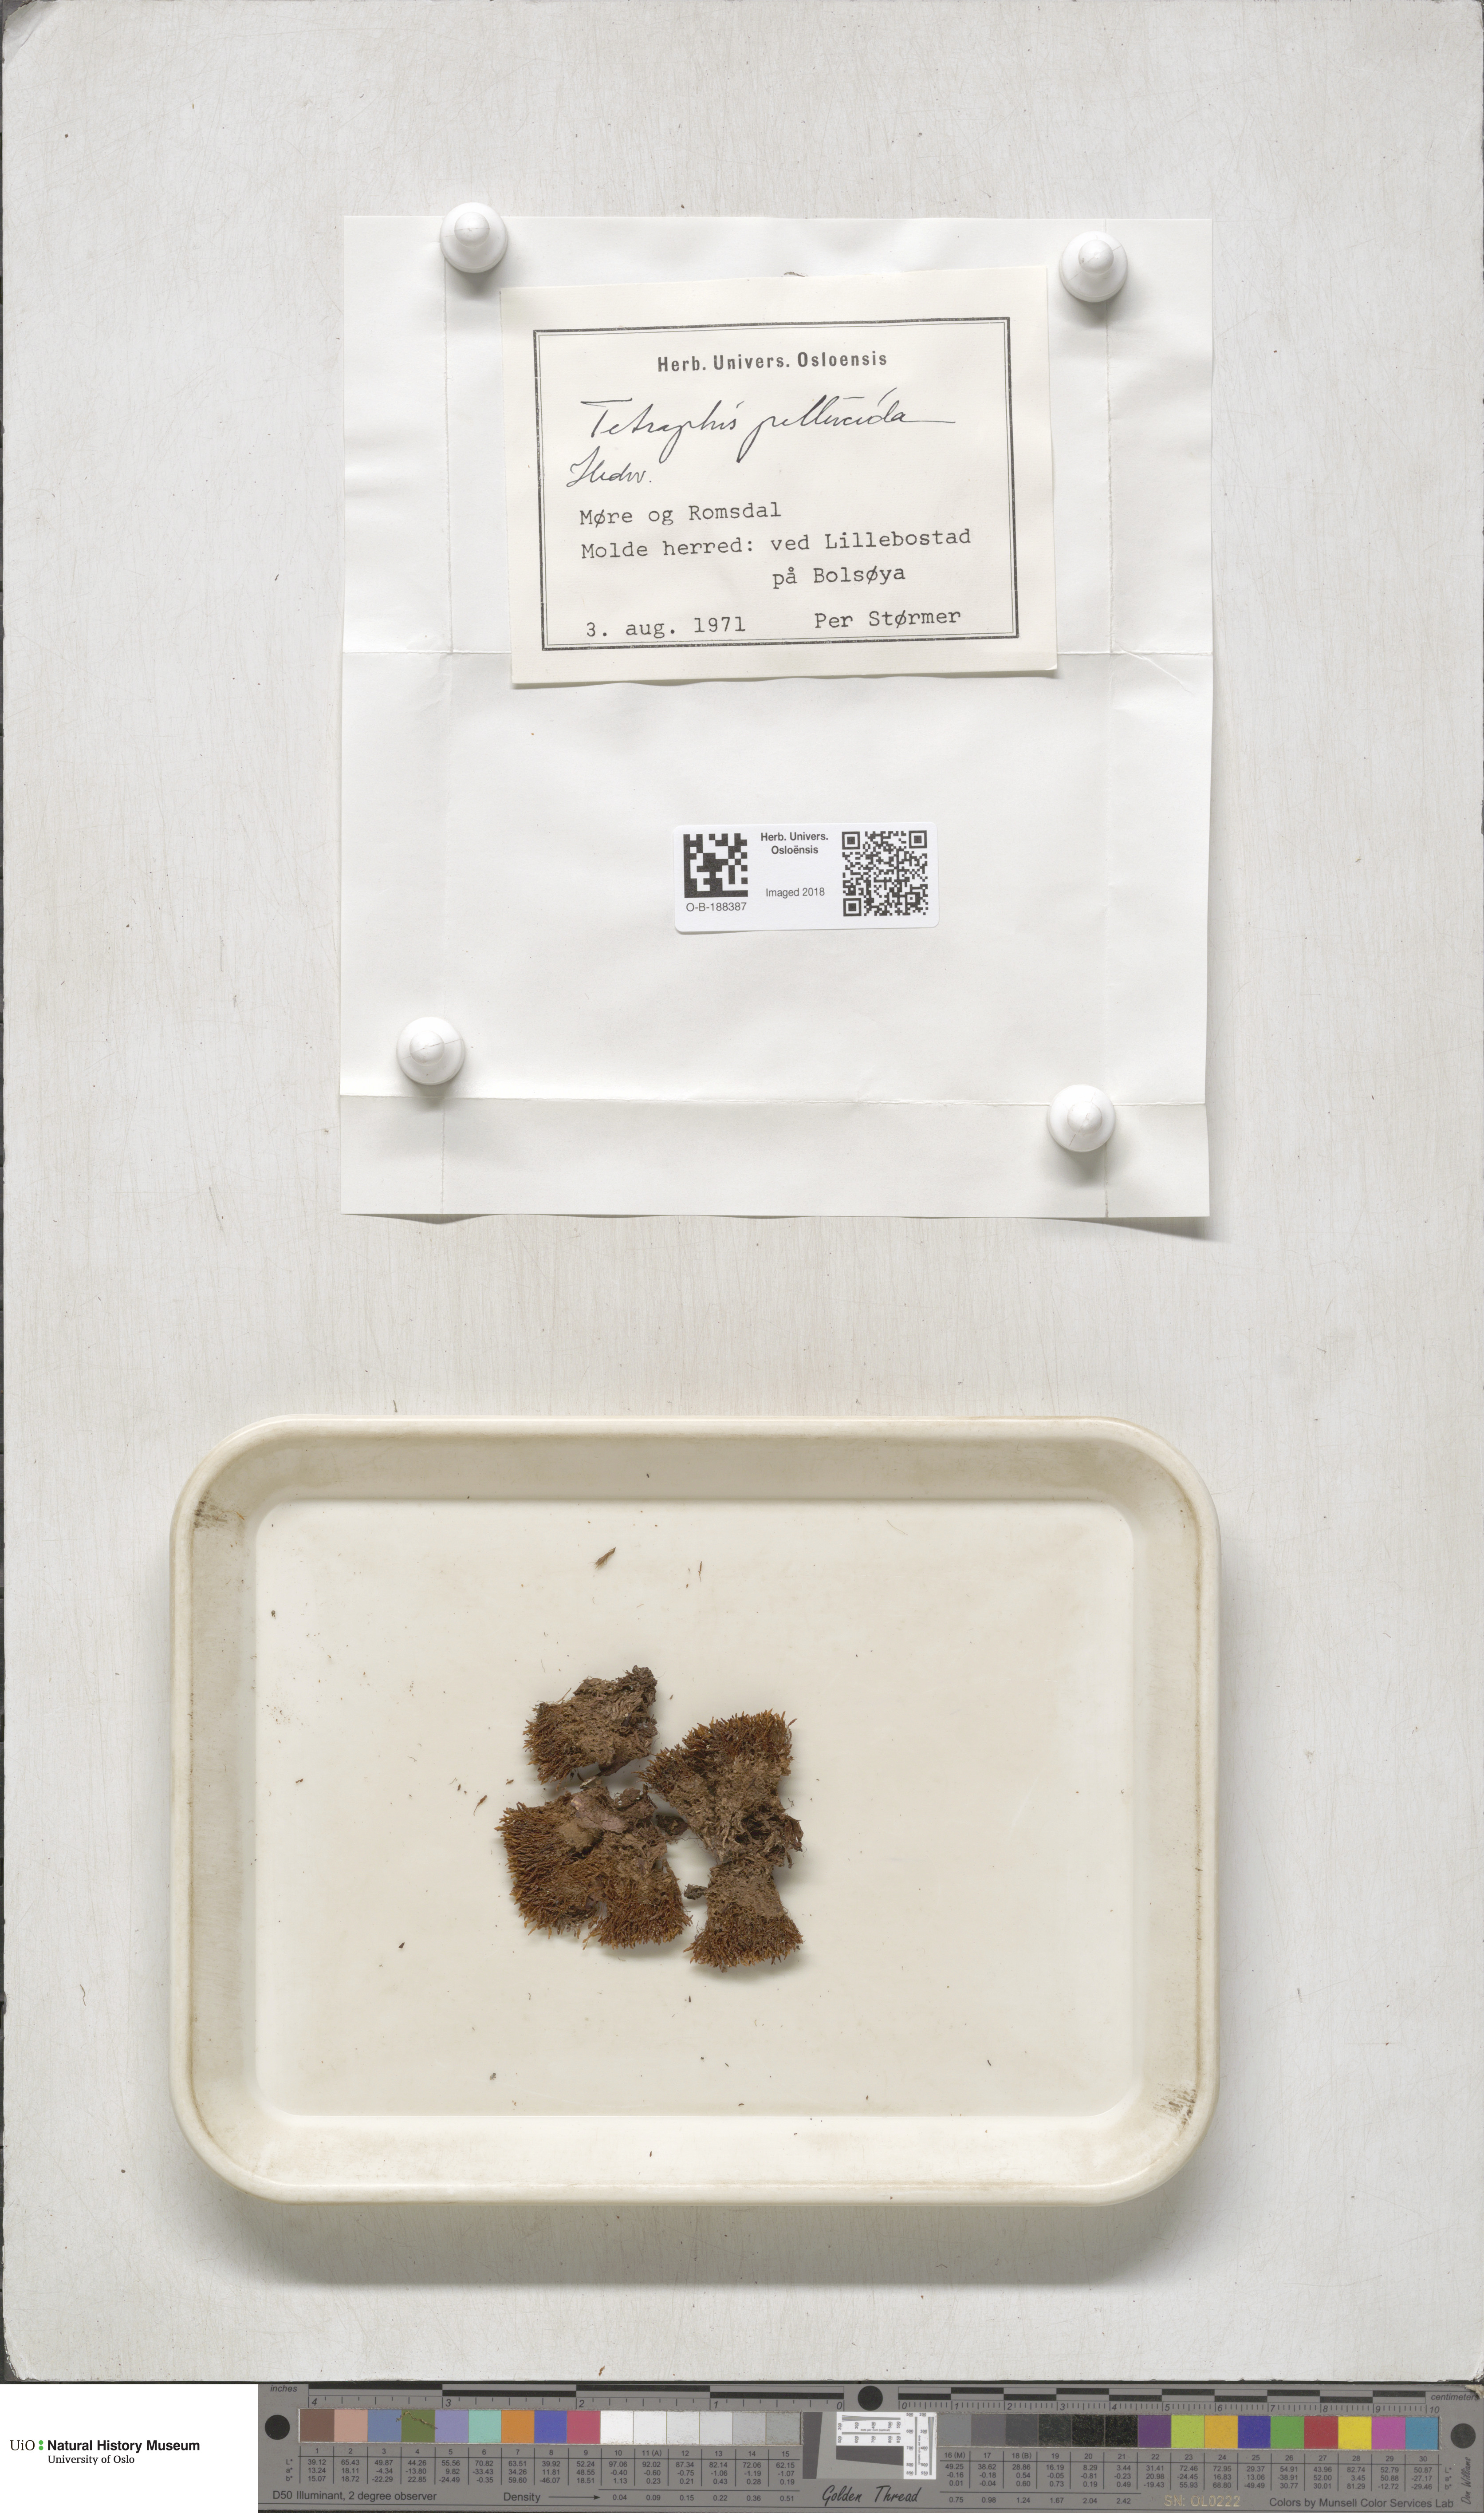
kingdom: Plantae
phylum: Bryophyta
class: Polytrichopsida
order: Tetraphidales
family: Tetraphidaceae
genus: Tetraphis
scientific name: Tetraphis pellucida
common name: Common four-toothed moss
